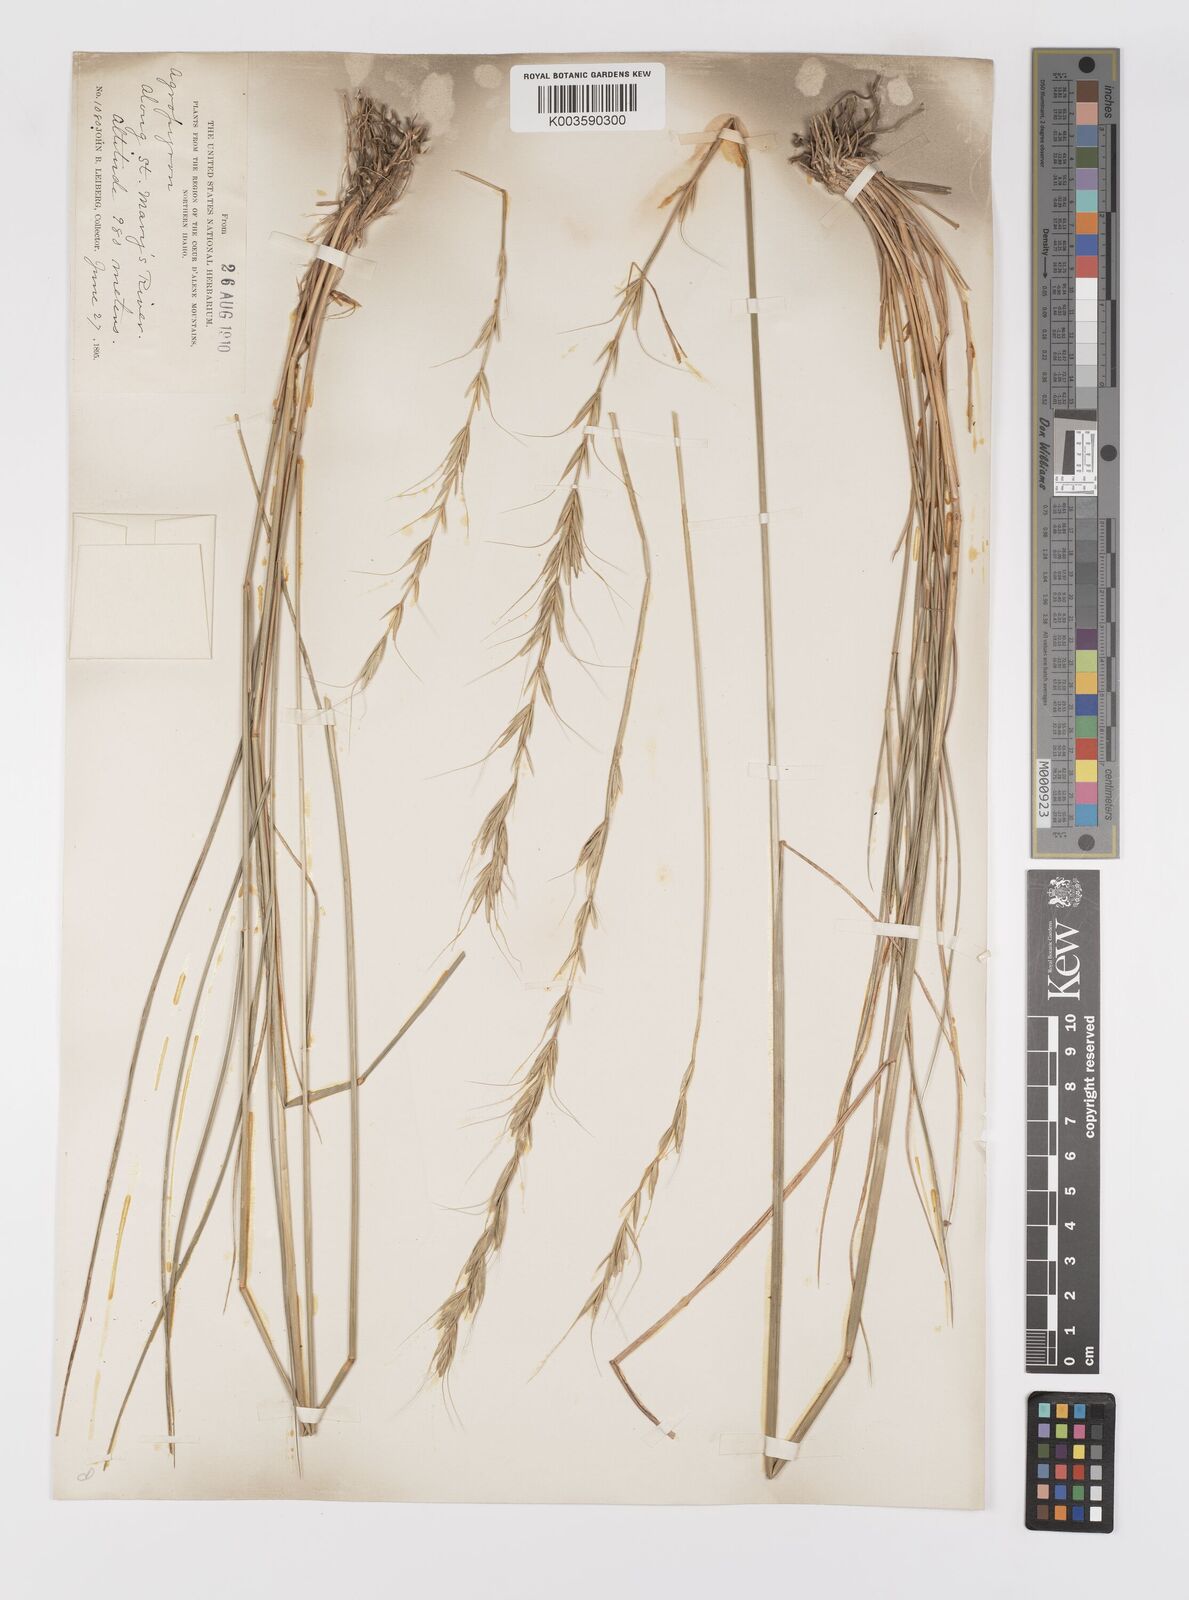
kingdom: Plantae
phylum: Tracheophyta
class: Liliopsida
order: Poales
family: Poaceae
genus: Elymus
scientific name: Elymus
